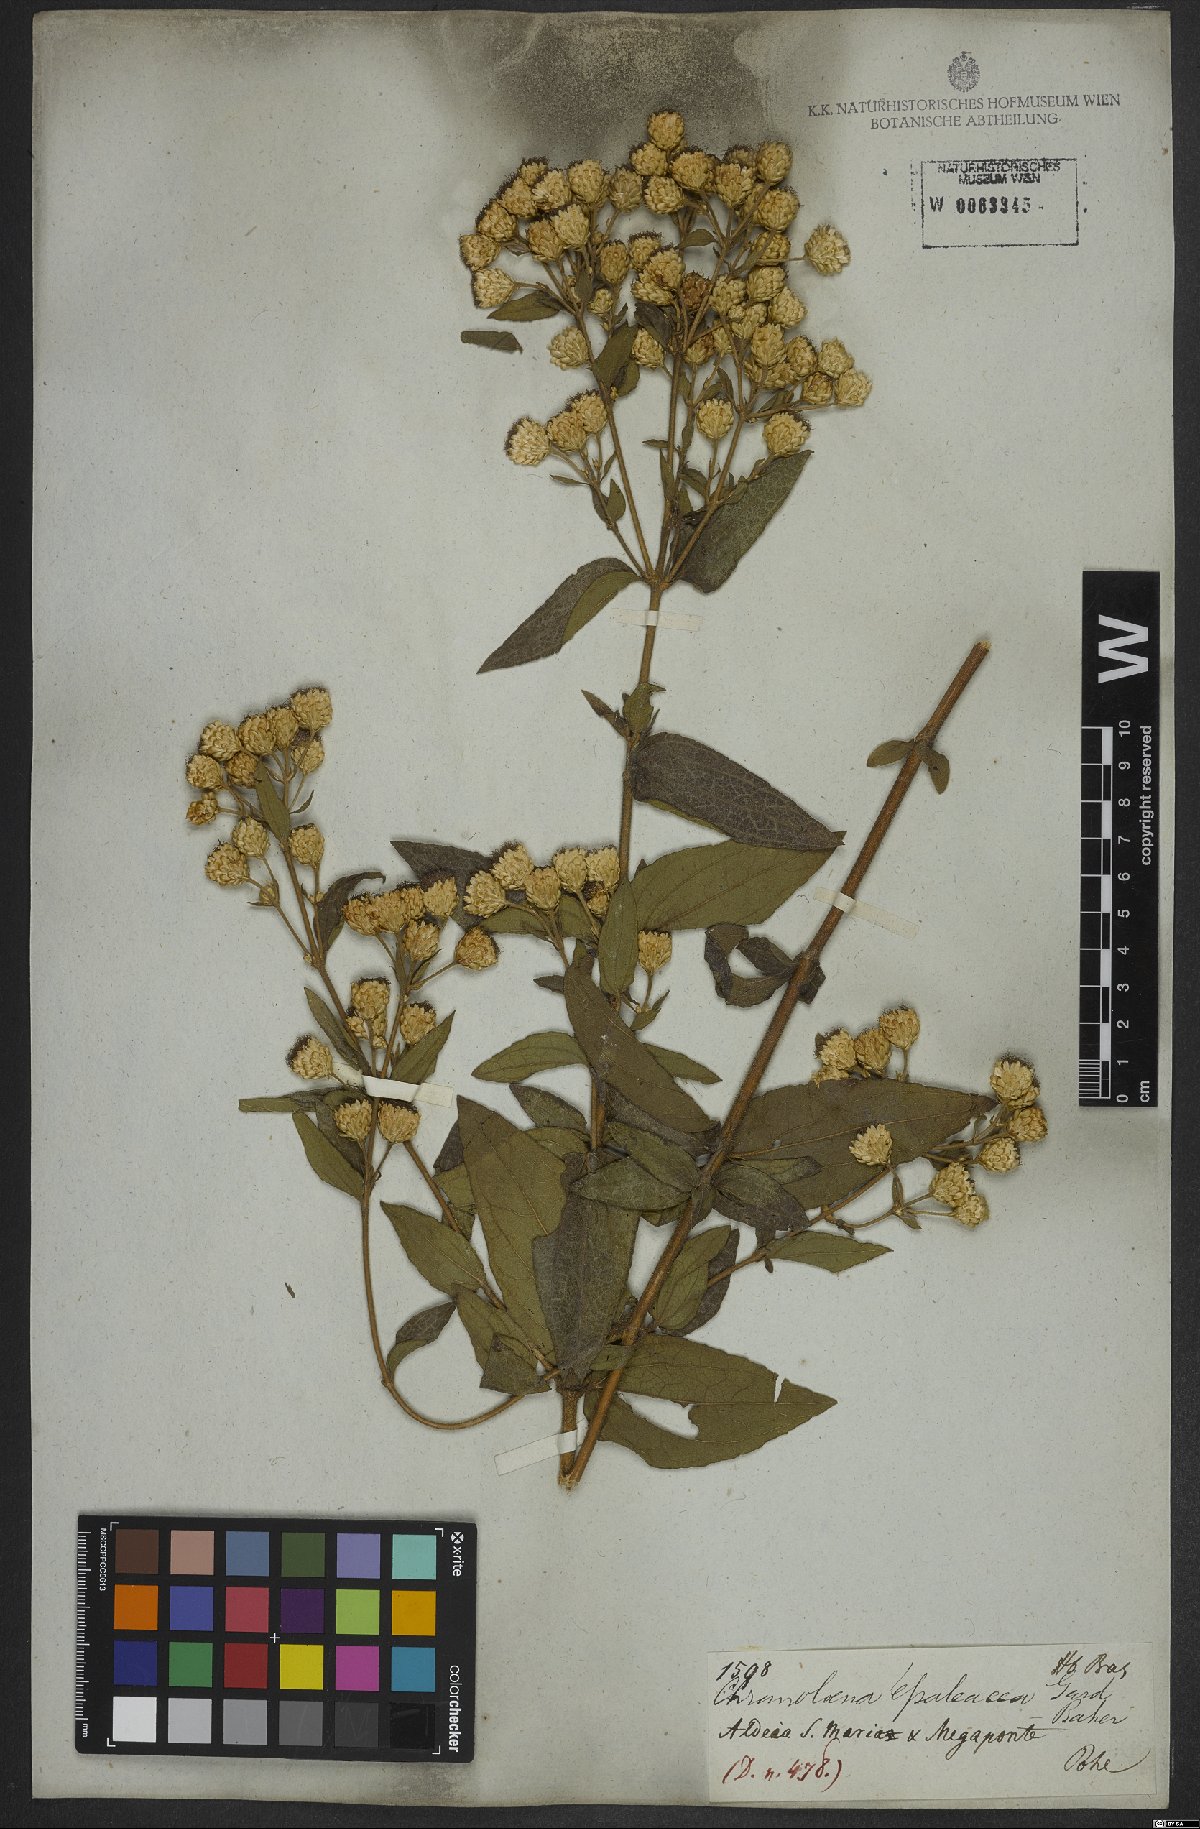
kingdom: Plantae
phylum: Tracheophyta
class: Magnoliopsida
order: Asterales
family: Asteraceae
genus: Chromolaena
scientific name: Chromolaena epaleacea
